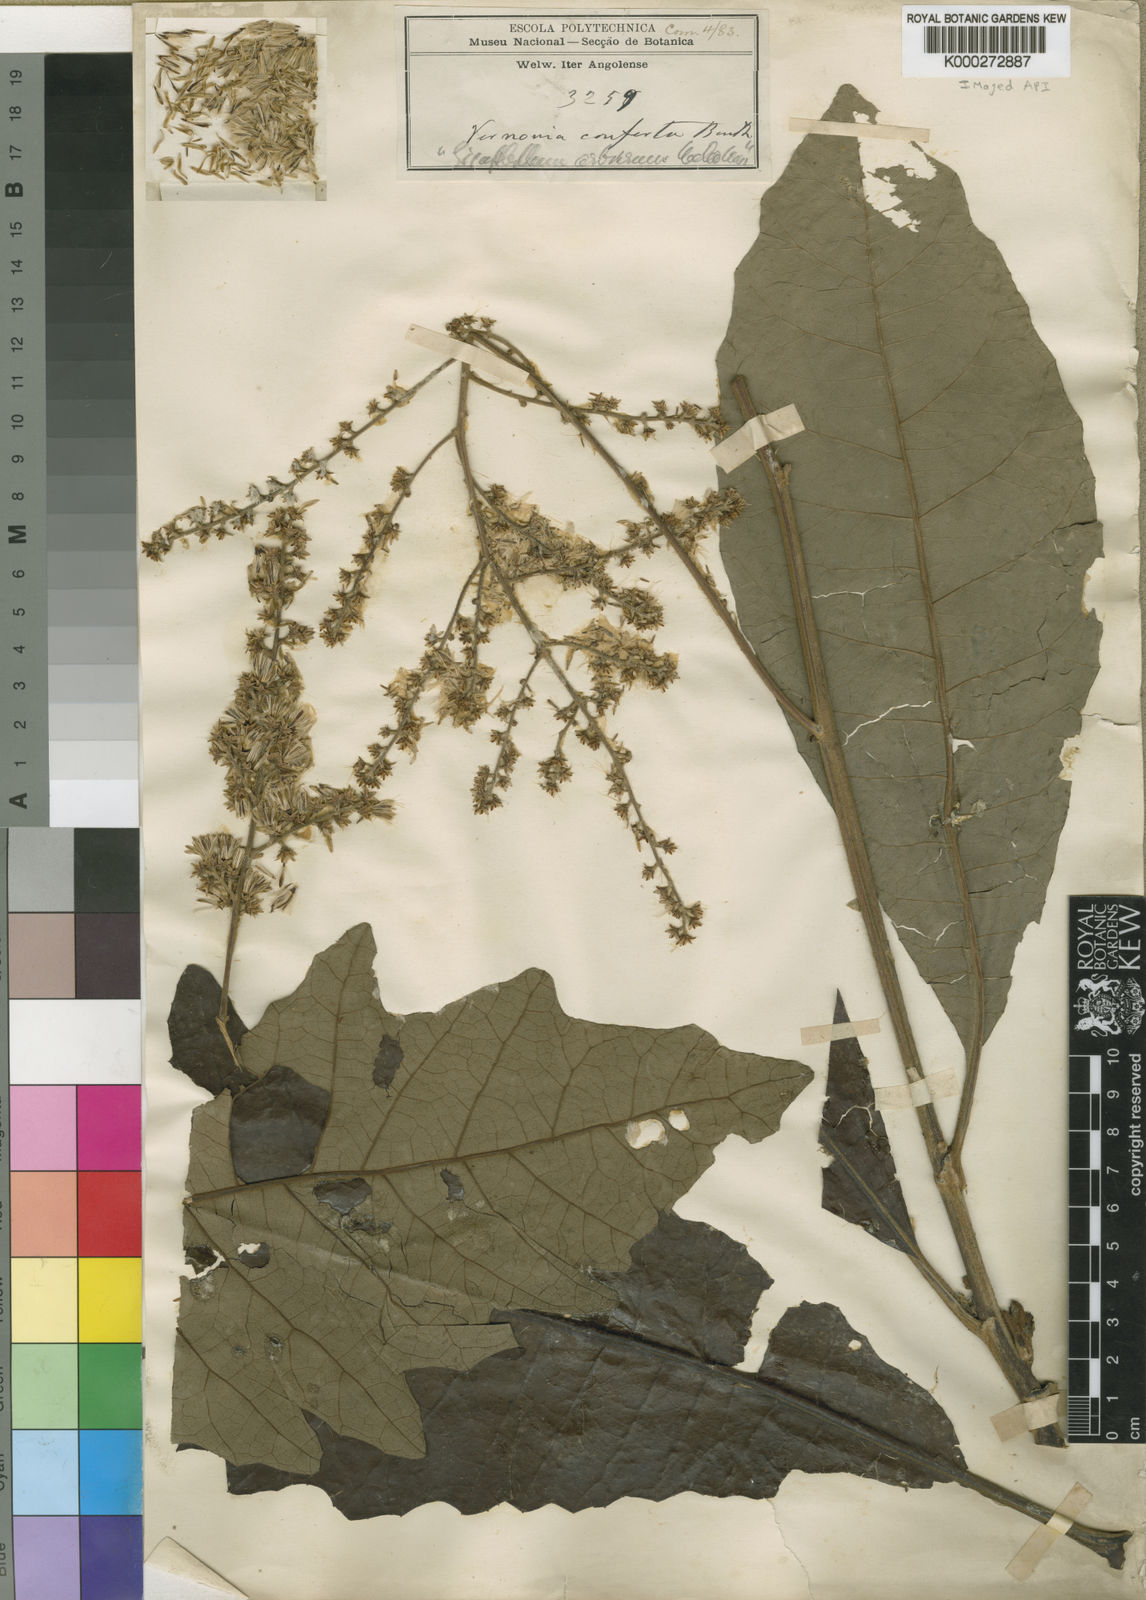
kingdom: Plantae
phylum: Tracheophyta
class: Magnoliopsida
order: Asterales
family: Asteraceae
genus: Monosis
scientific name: Monosis conferta
